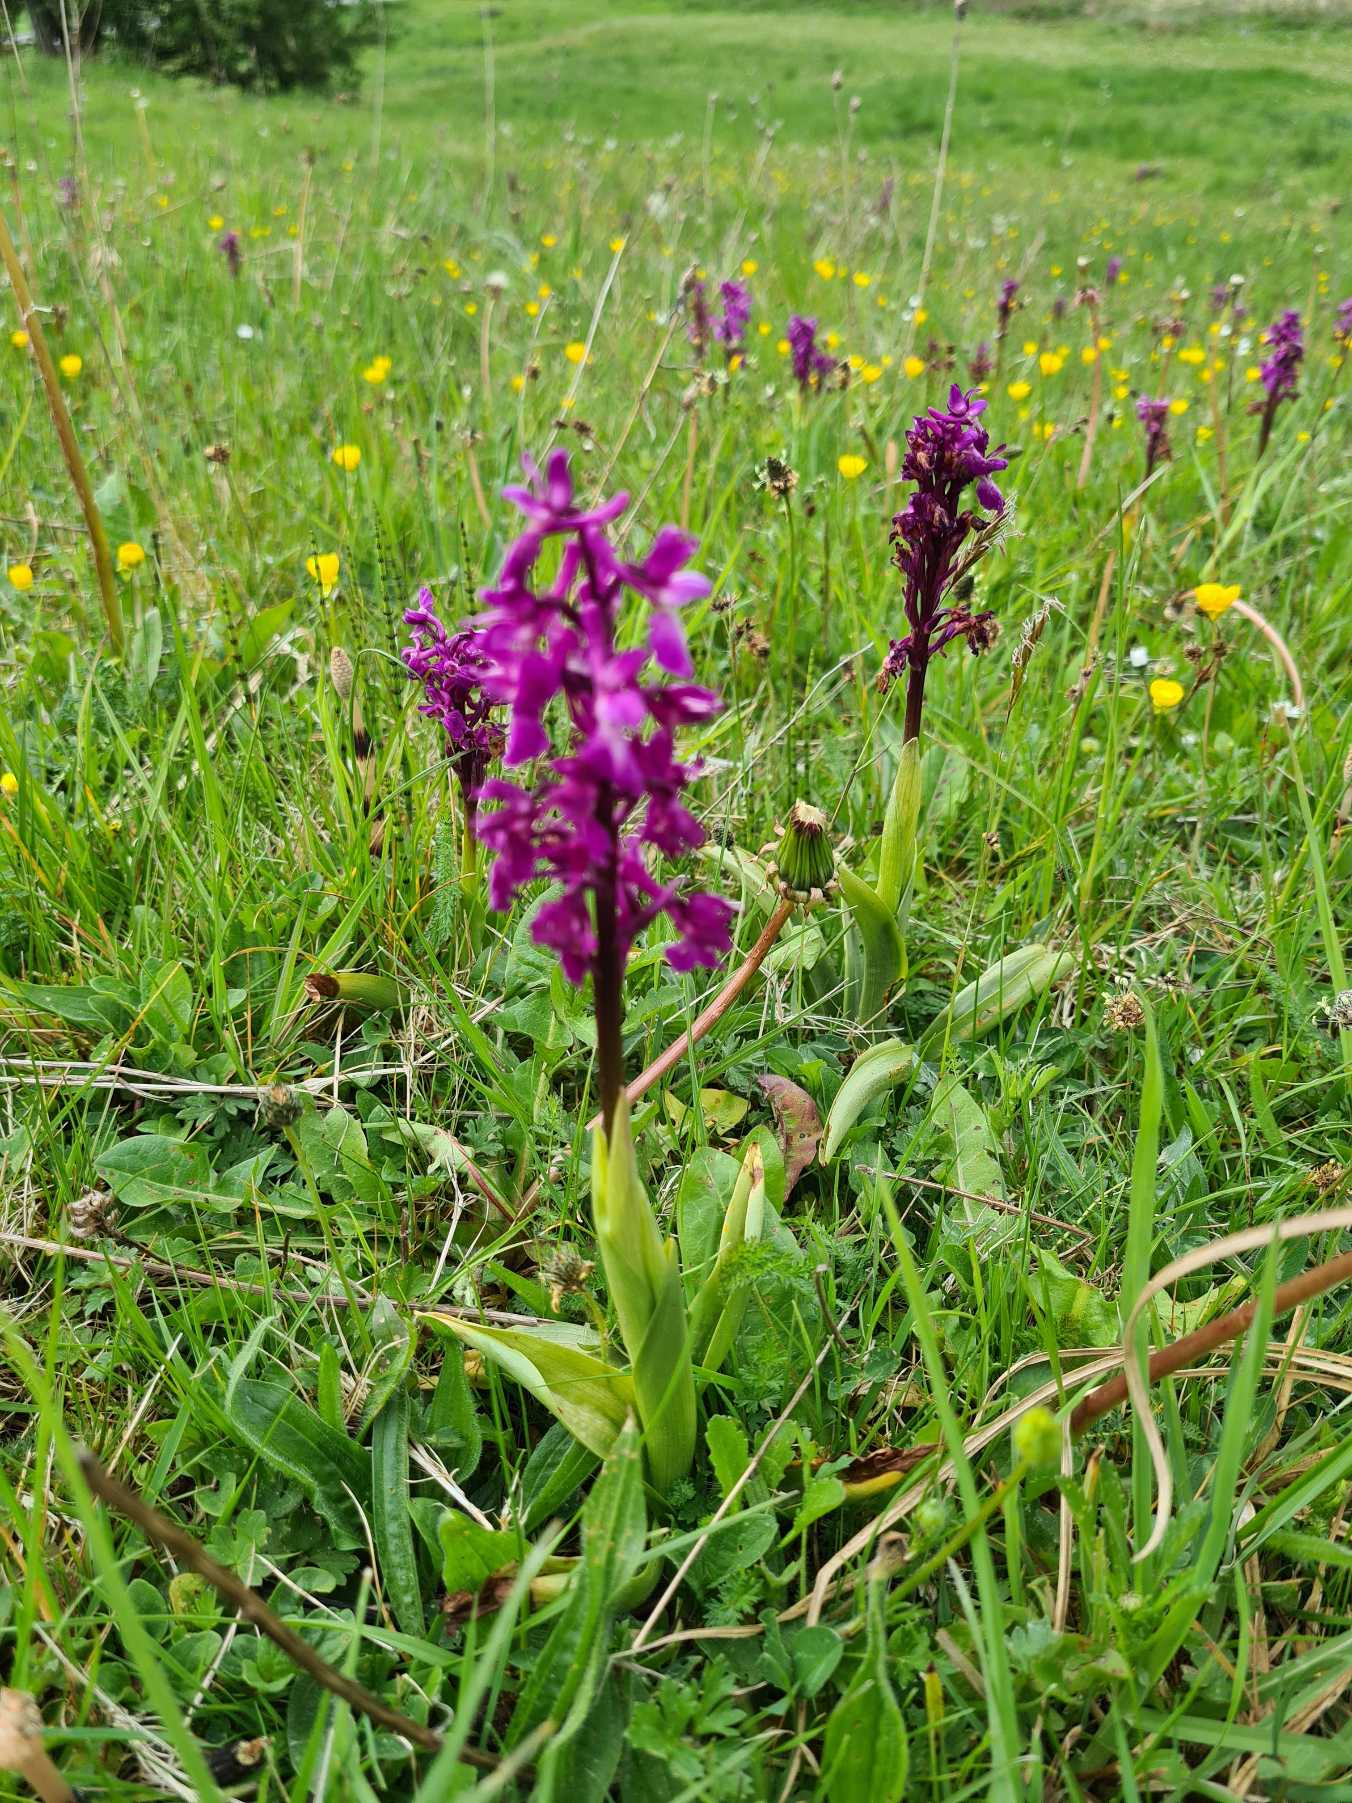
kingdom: Plantae
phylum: Tracheophyta
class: Liliopsida
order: Asparagales
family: Orchidaceae
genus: Orchis
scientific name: Orchis mascula
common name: Tyndakset gøgeurt
